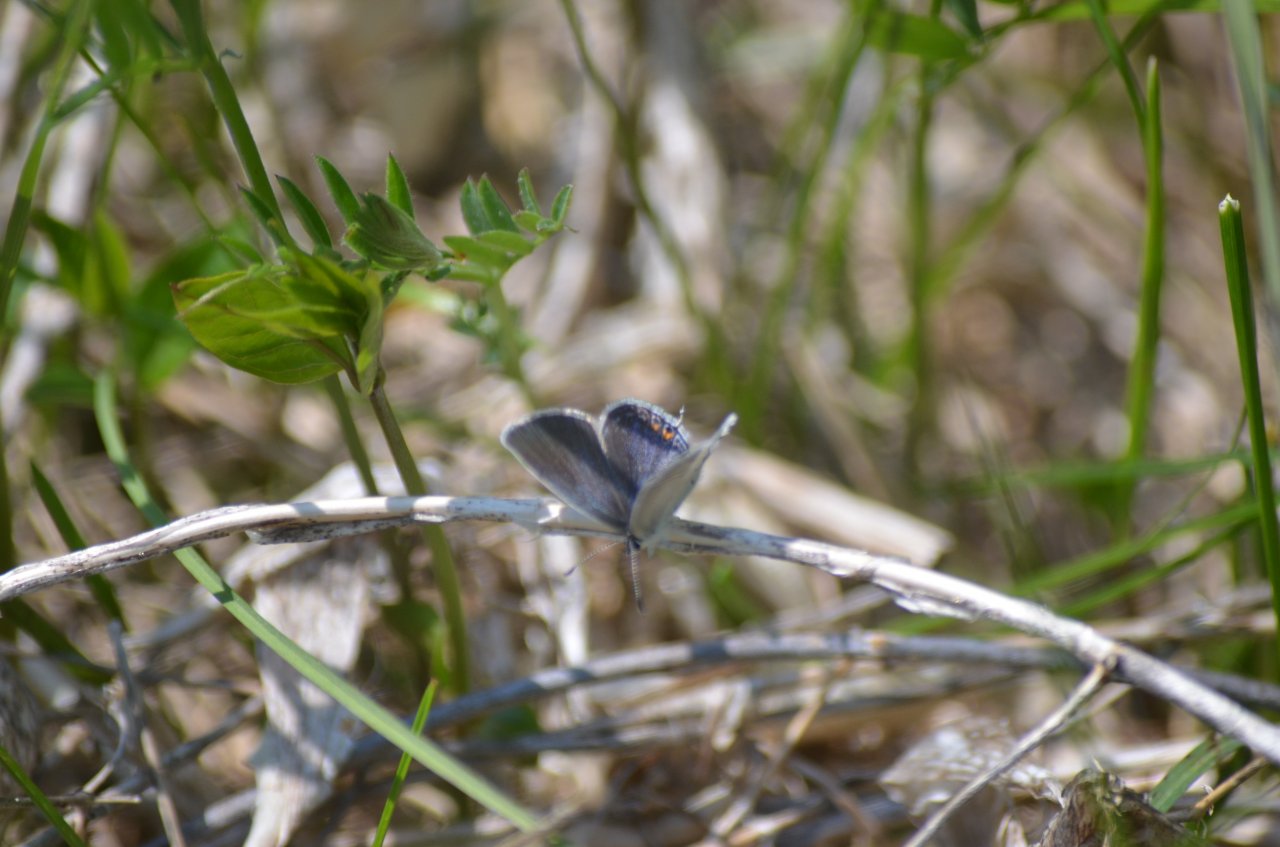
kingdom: Animalia
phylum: Arthropoda
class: Insecta
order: Lepidoptera
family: Lycaenidae
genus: Elkalyce
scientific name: Elkalyce comyntas
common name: Eastern Tailed-Blue
